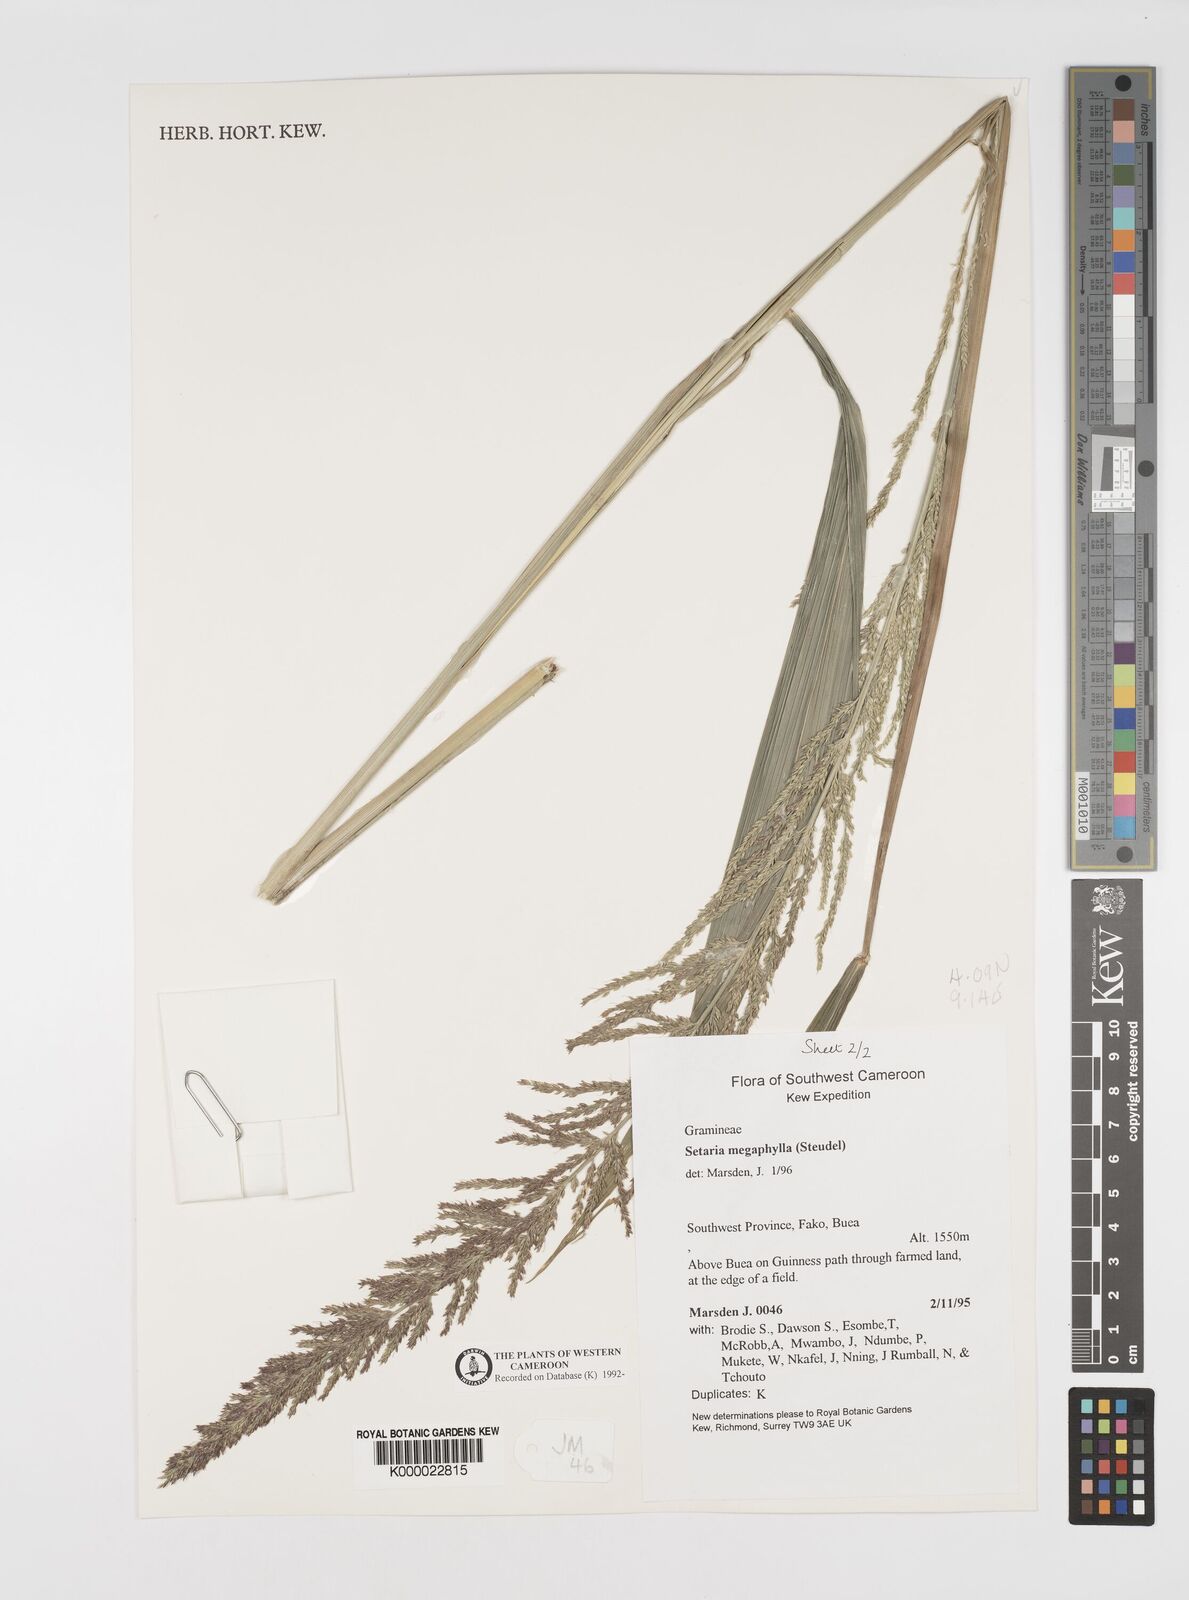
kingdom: Plantae
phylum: Tracheophyta
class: Liliopsida
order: Poales
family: Poaceae
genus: Setaria
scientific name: Setaria megaphylla
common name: Bigleaf bristlegrass
